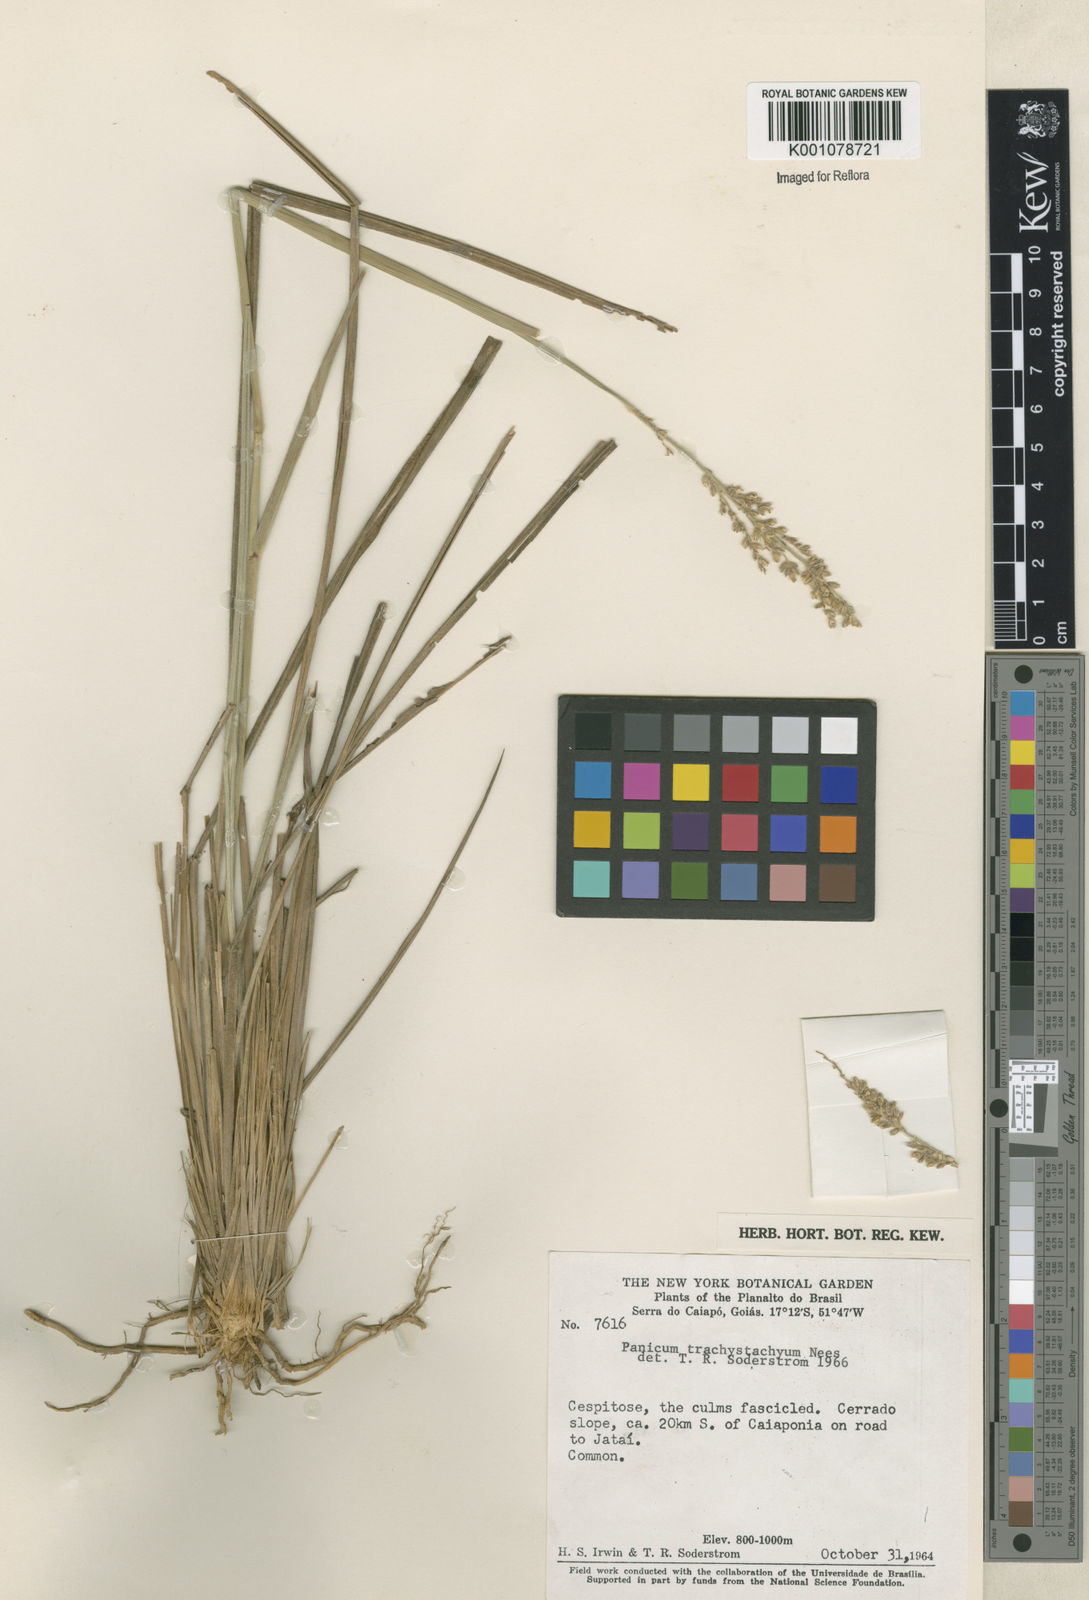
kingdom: Plantae
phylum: Tracheophyta
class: Liliopsida
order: Poales
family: Poaceae
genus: Anthaenantiopsis
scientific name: Anthaenantiopsis perforata
